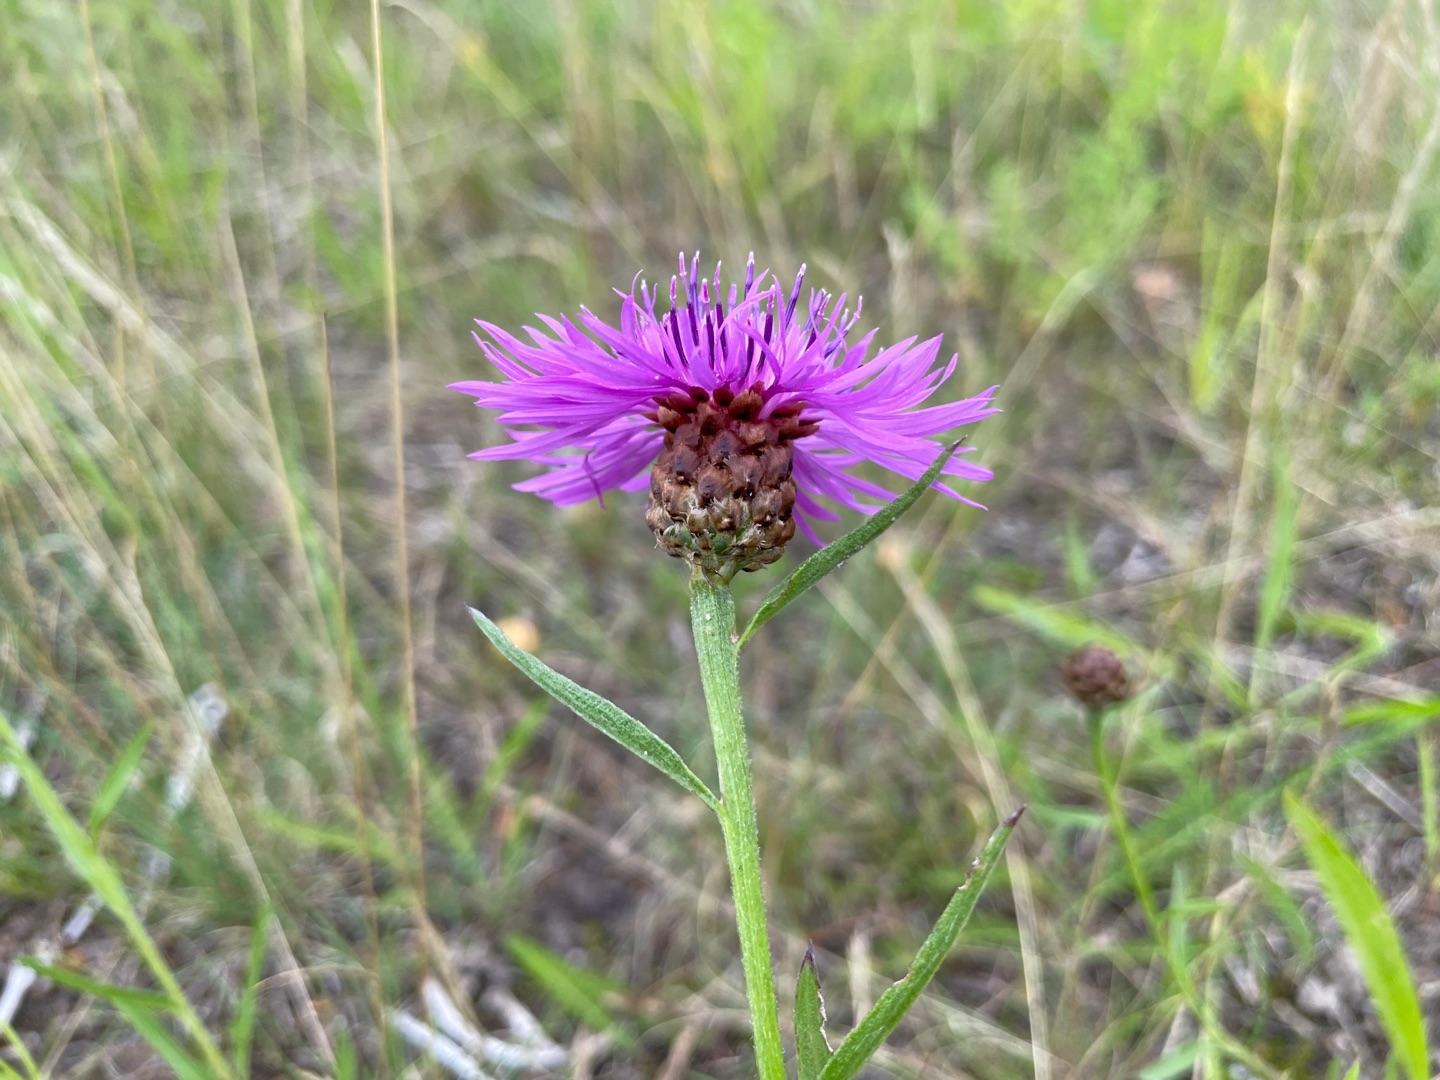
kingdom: Plantae
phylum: Tracheophyta
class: Magnoliopsida
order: Asterales
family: Asteraceae
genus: Centaurea
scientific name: Centaurea jacea
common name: Almindelig knopurt
